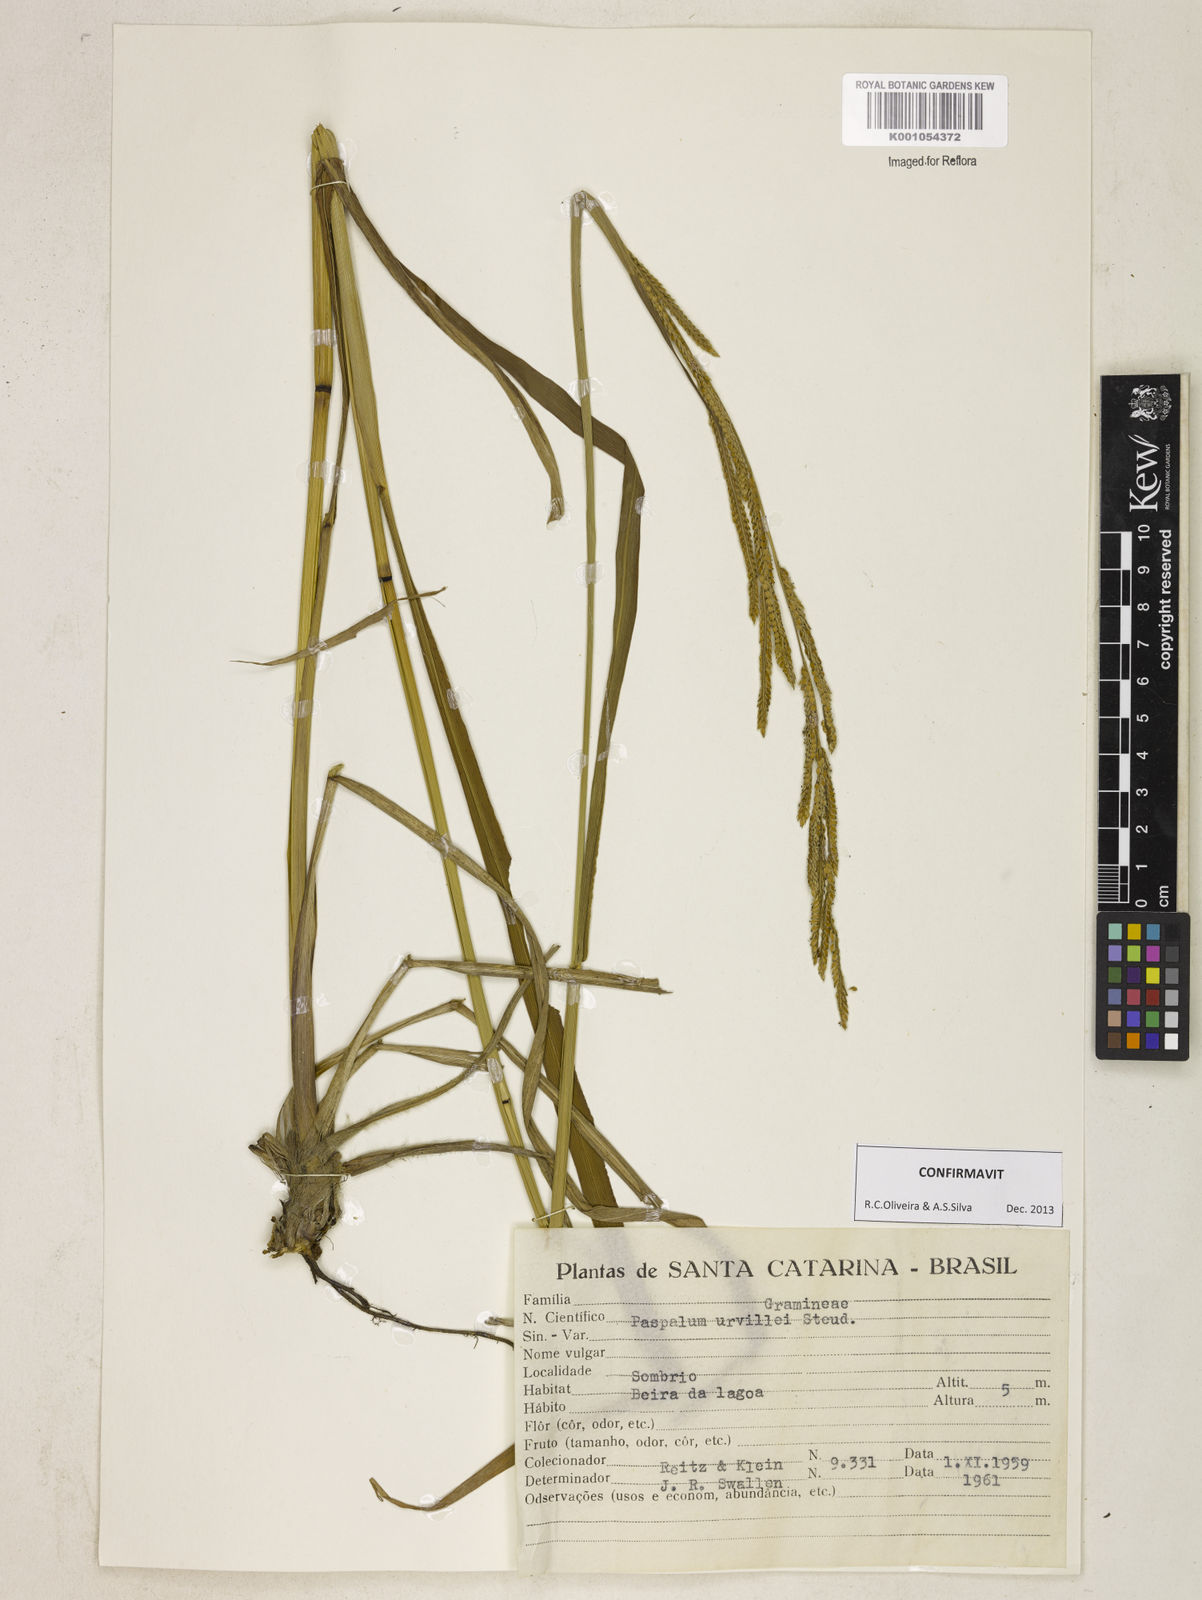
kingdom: Plantae
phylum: Tracheophyta
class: Liliopsida
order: Poales
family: Poaceae
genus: Paspalum
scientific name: Paspalum urvillei
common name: Vasey's grass
